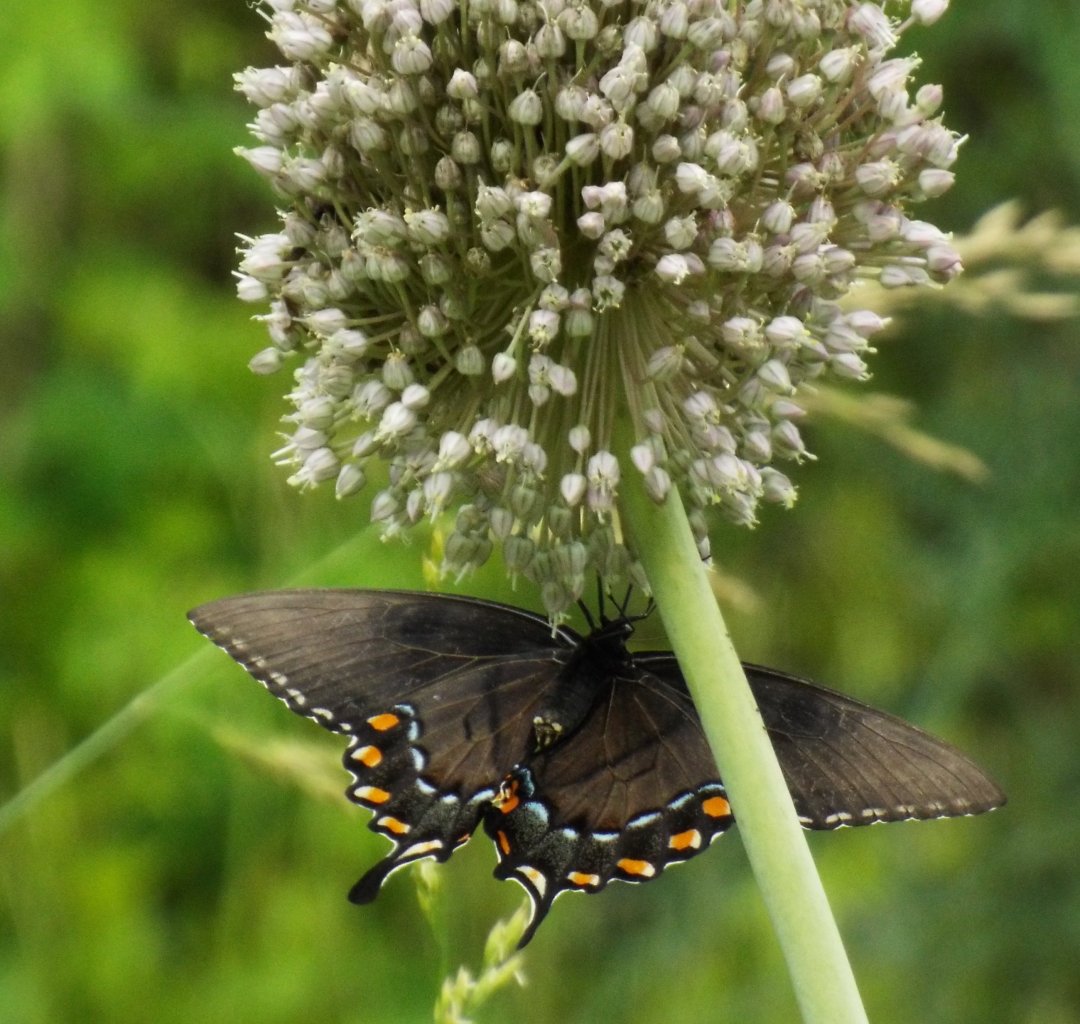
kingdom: Animalia
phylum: Arthropoda
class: Insecta
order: Lepidoptera
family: Papilionidae
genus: Pterourus
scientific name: Pterourus glaucus
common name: Eastern Tiger Swallowtail
